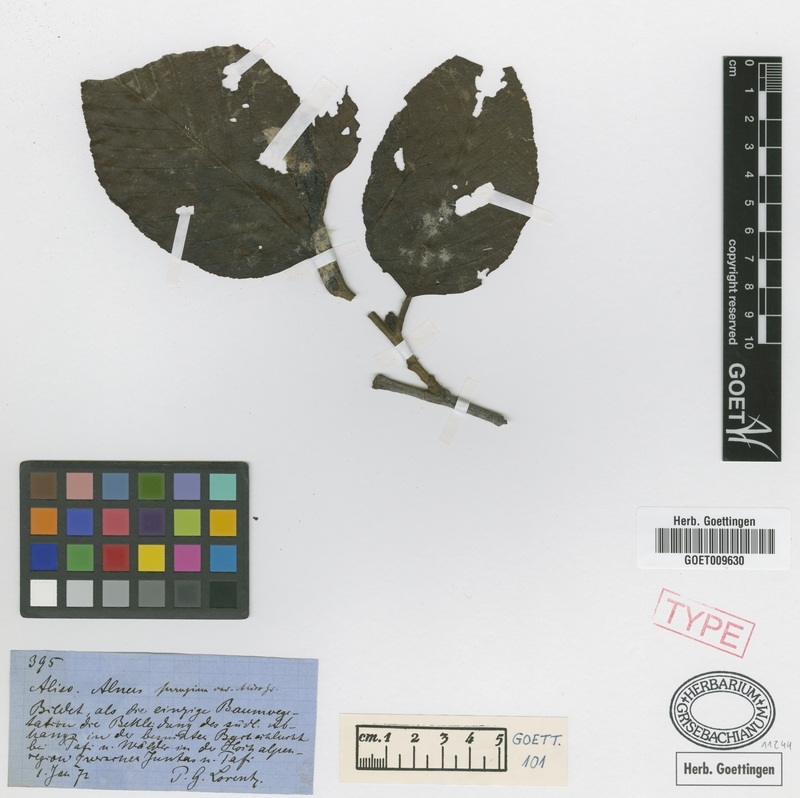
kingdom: Plantae
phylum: Tracheophyta
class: Magnoliopsida
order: Fagales
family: Betulaceae
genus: Alnus
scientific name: Alnus acuminata
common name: Alder
